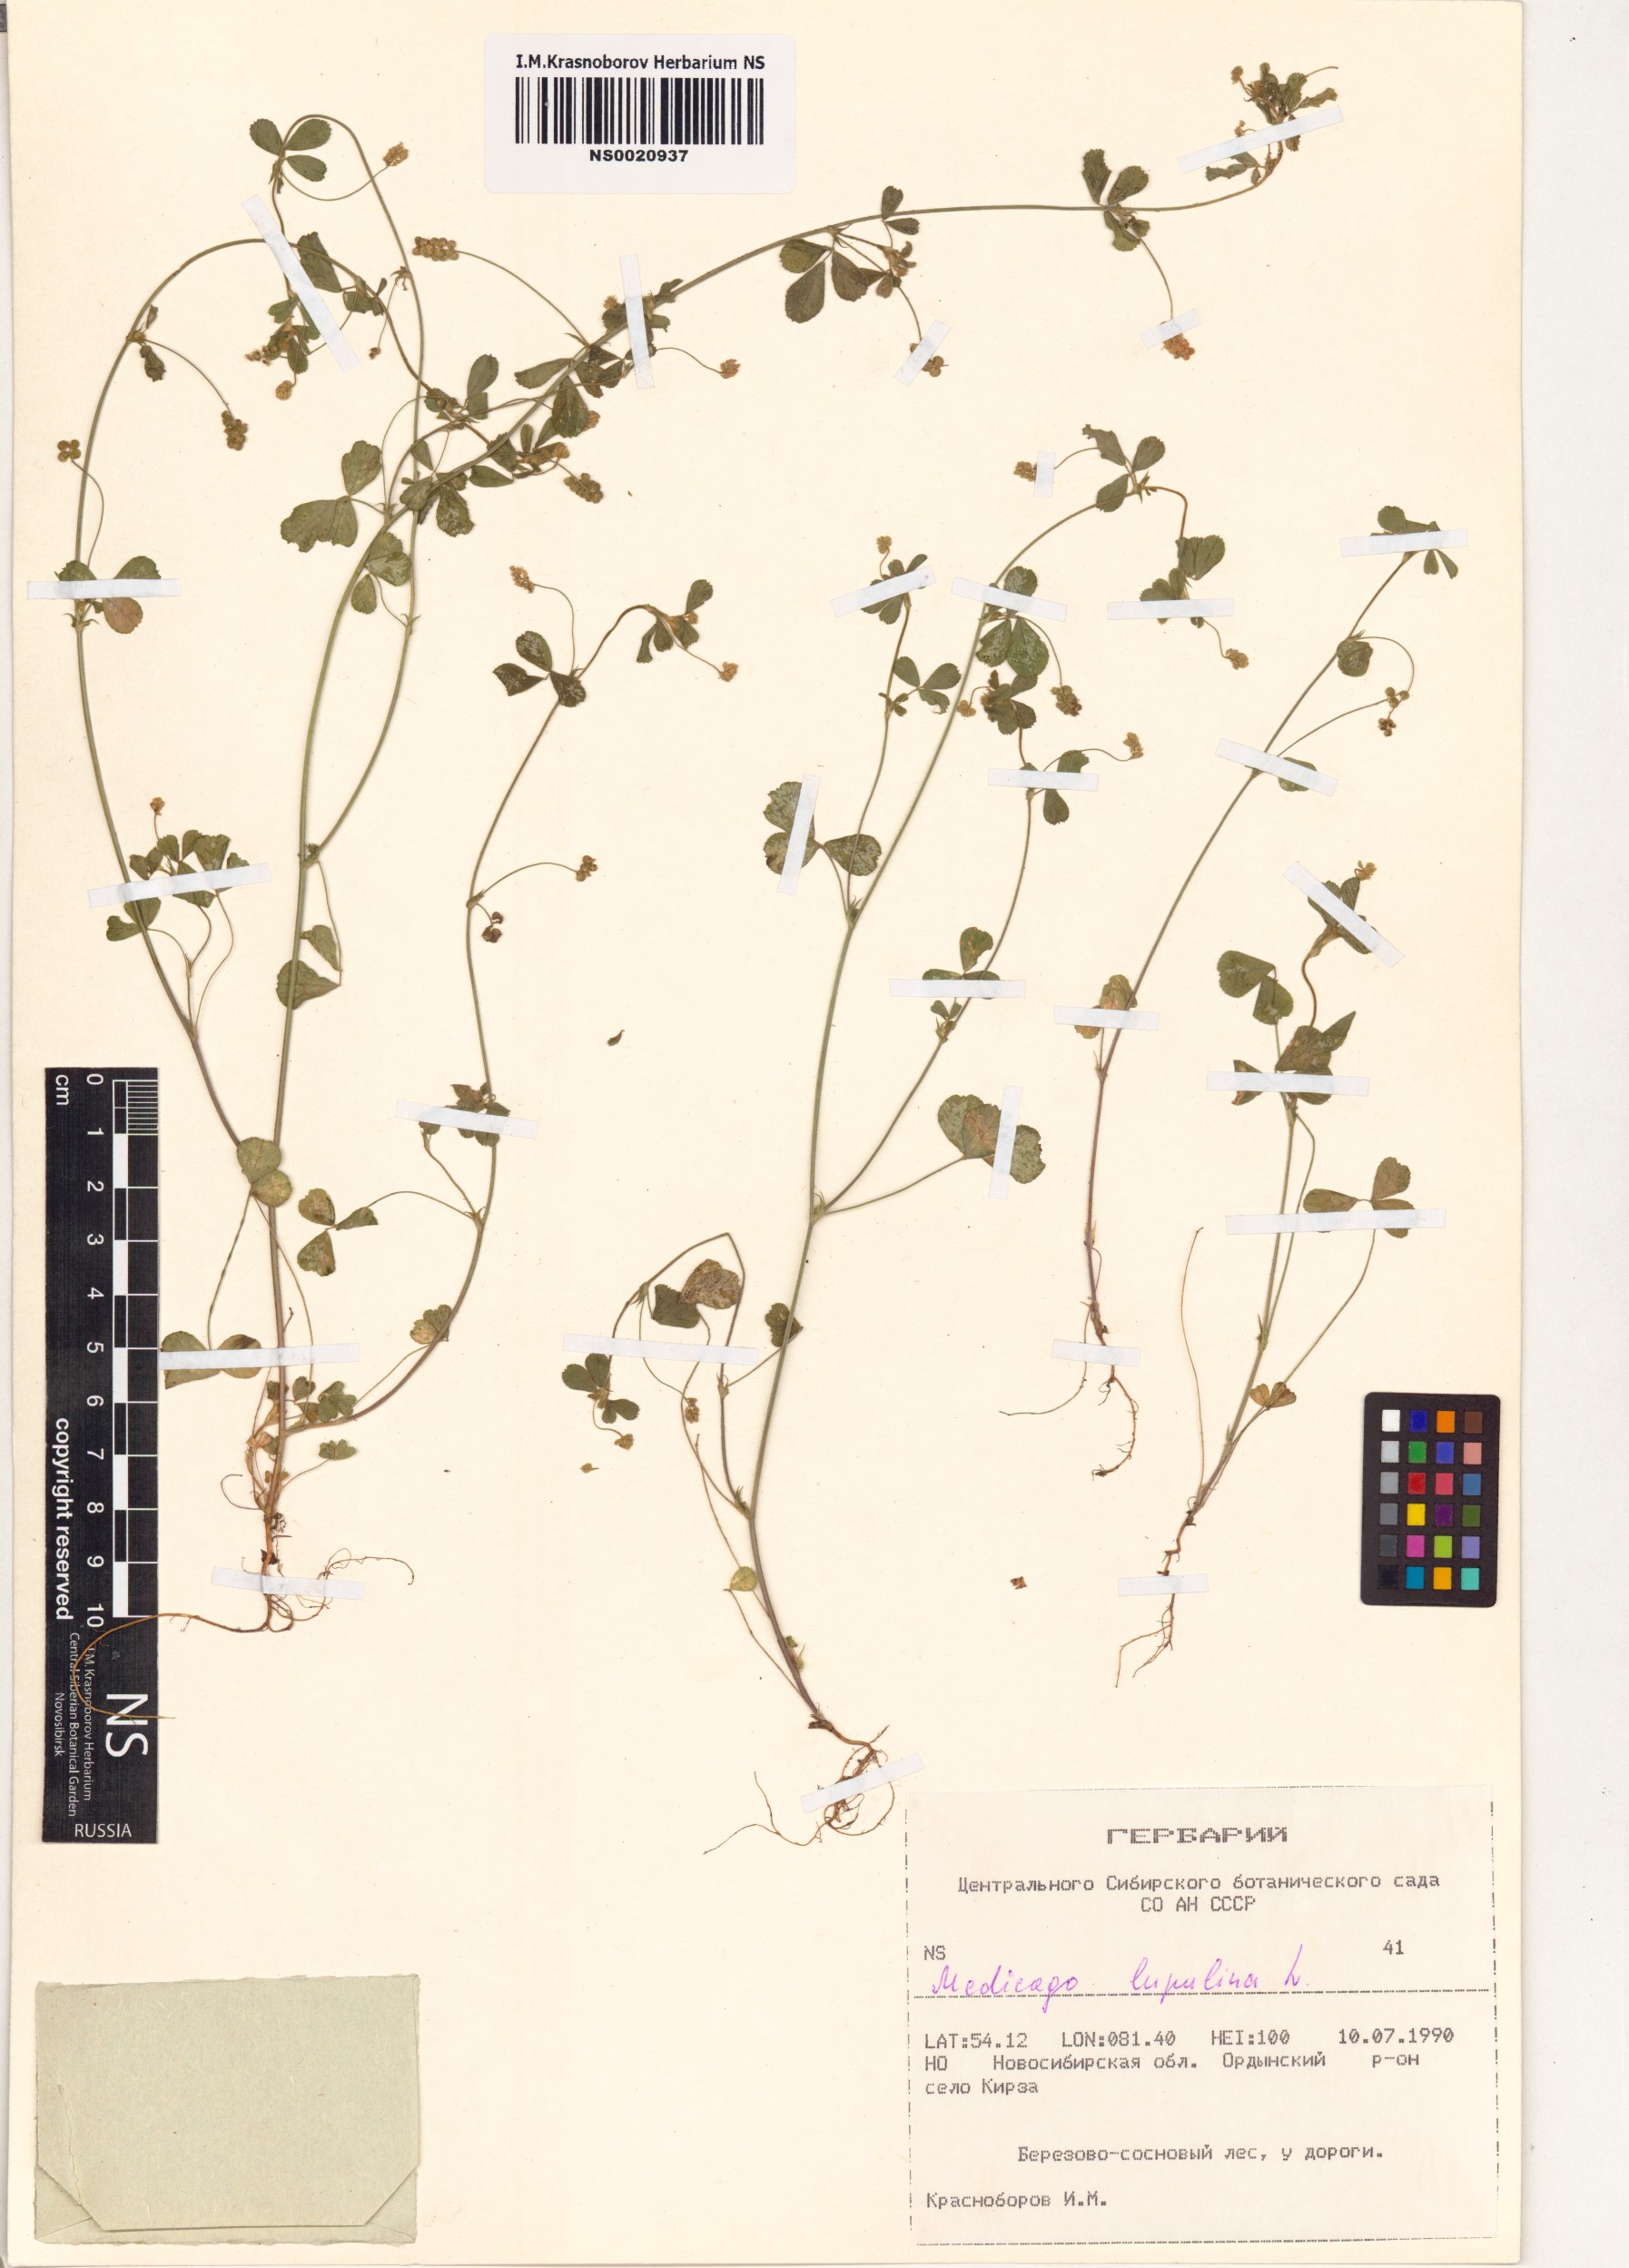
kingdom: Plantae
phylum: Tracheophyta
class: Magnoliopsida
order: Fabales
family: Fabaceae
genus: Medicago
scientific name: Medicago lupulina
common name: Black medick
